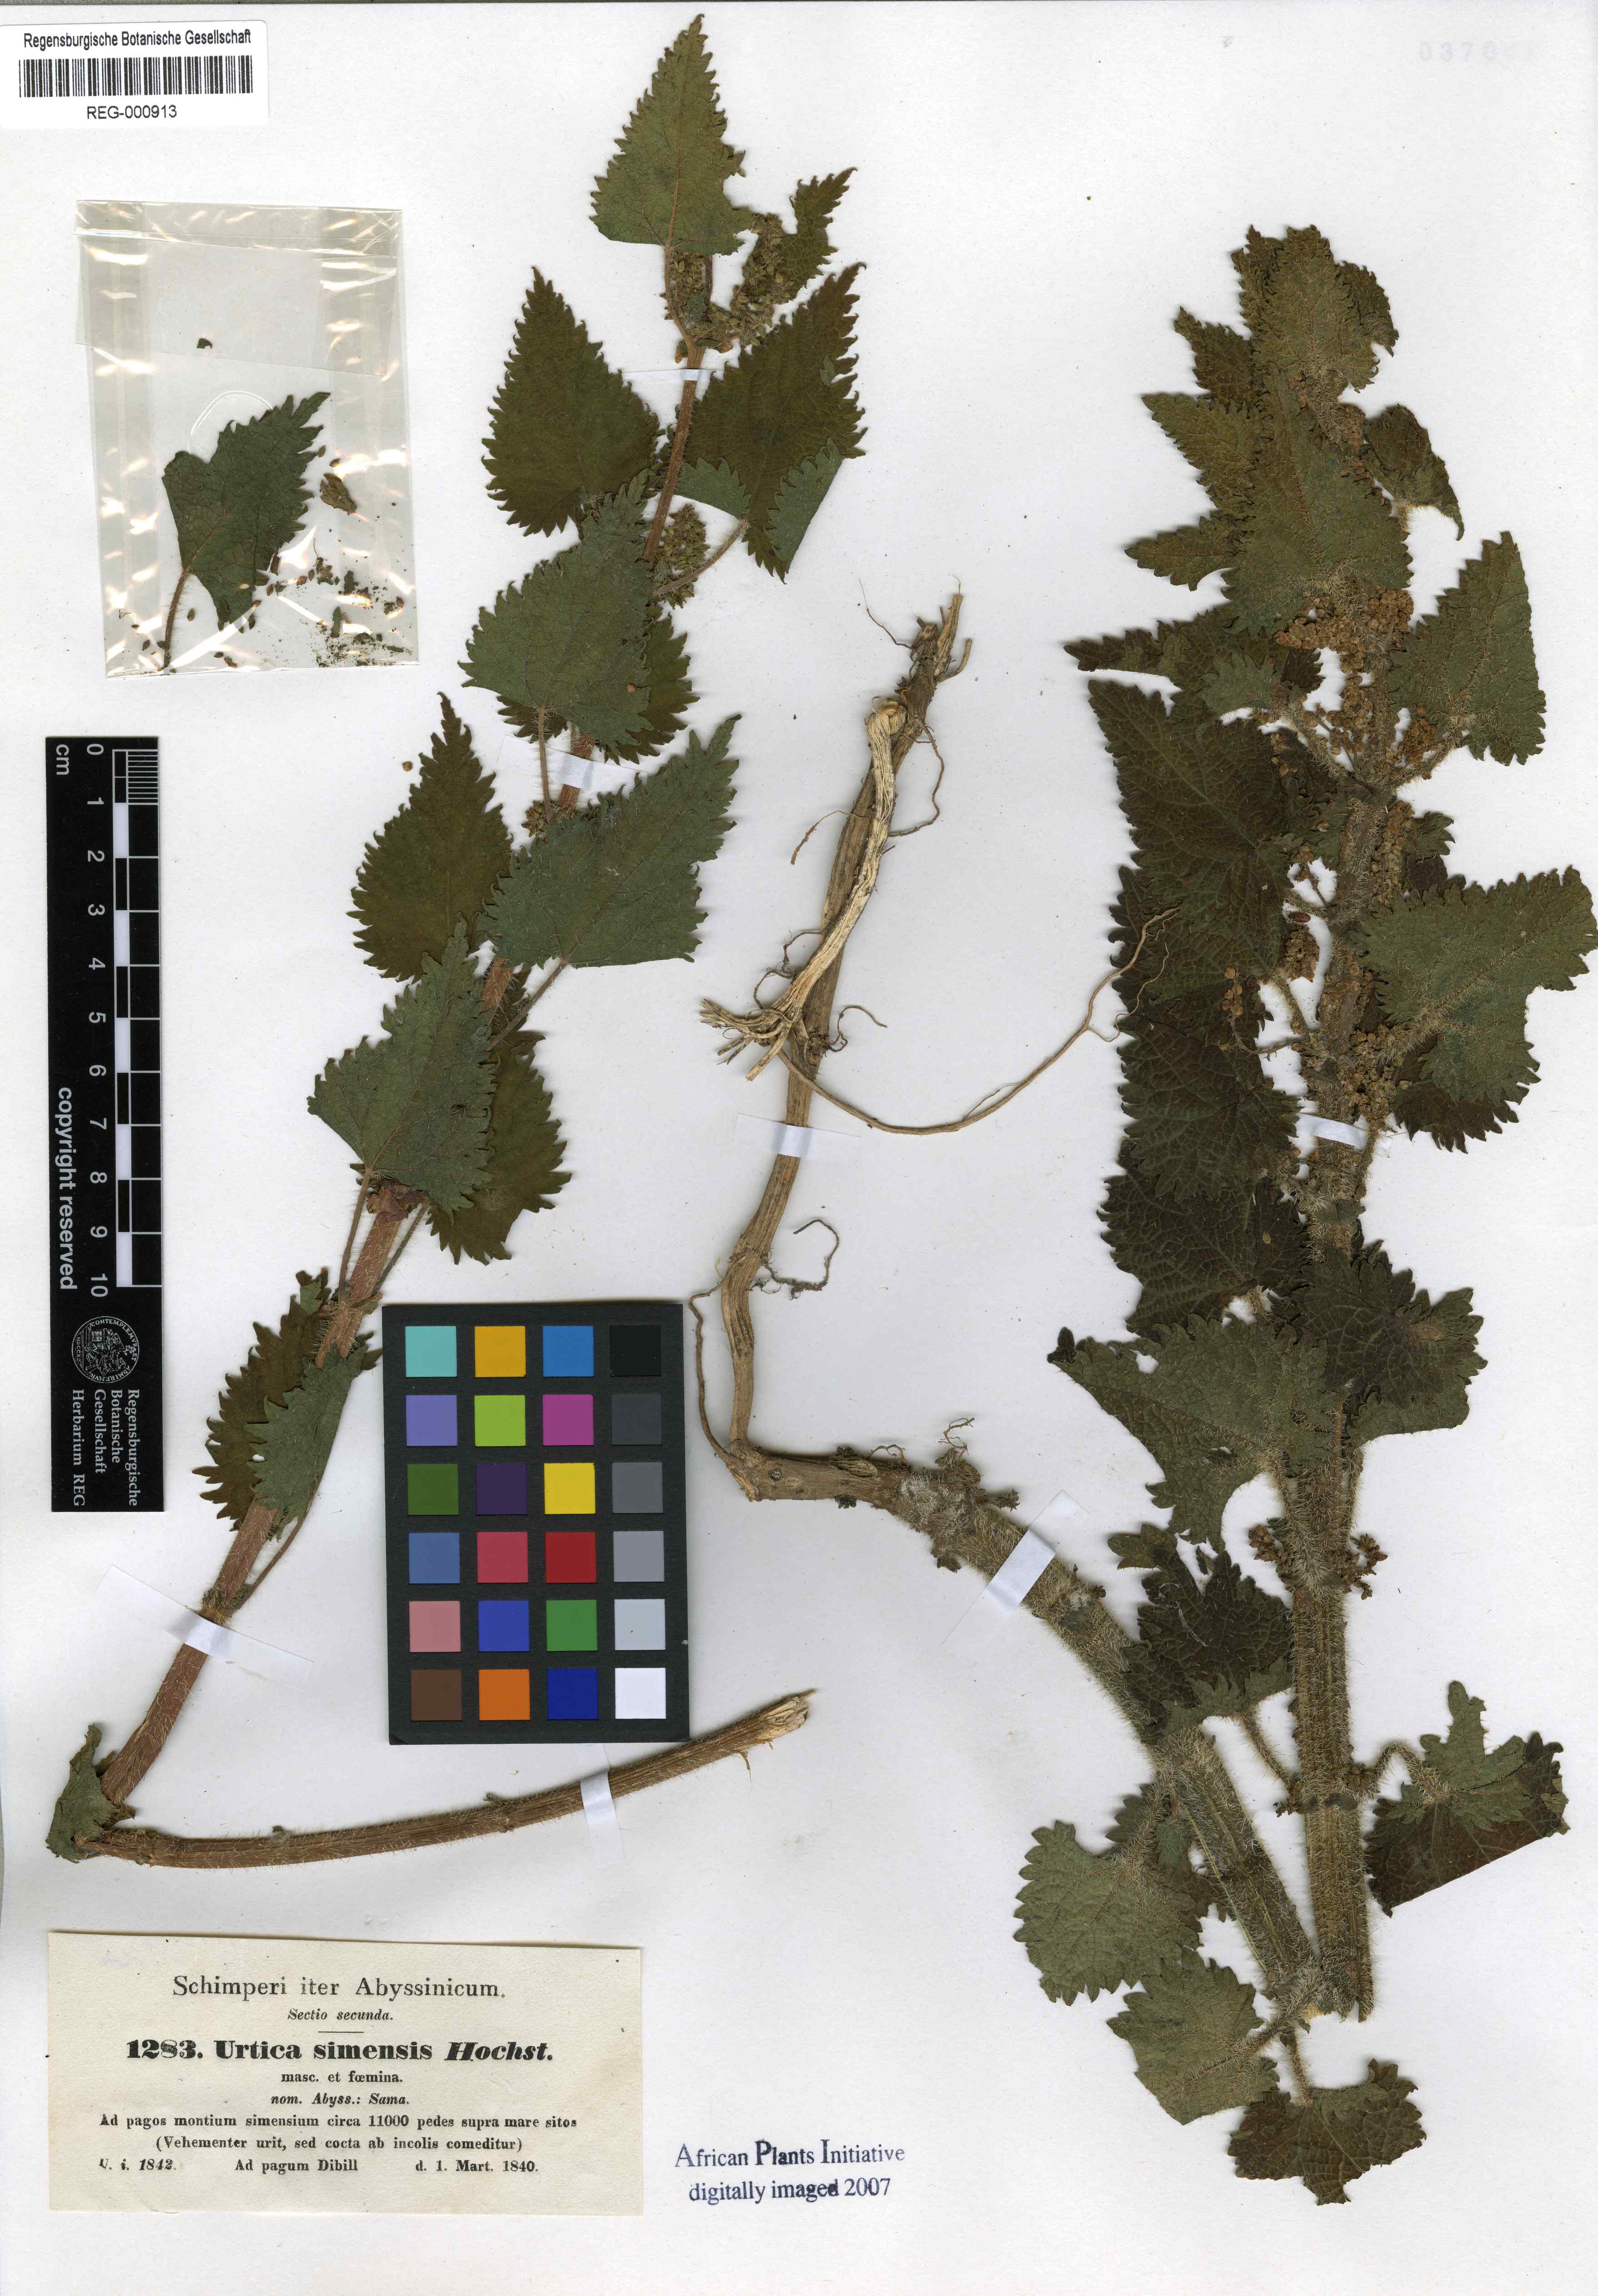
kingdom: Plantae
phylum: Tracheophyta
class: Magnoliopsida
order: Rosales
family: Urticaceae
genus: Urtica
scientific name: Urtica simensis
